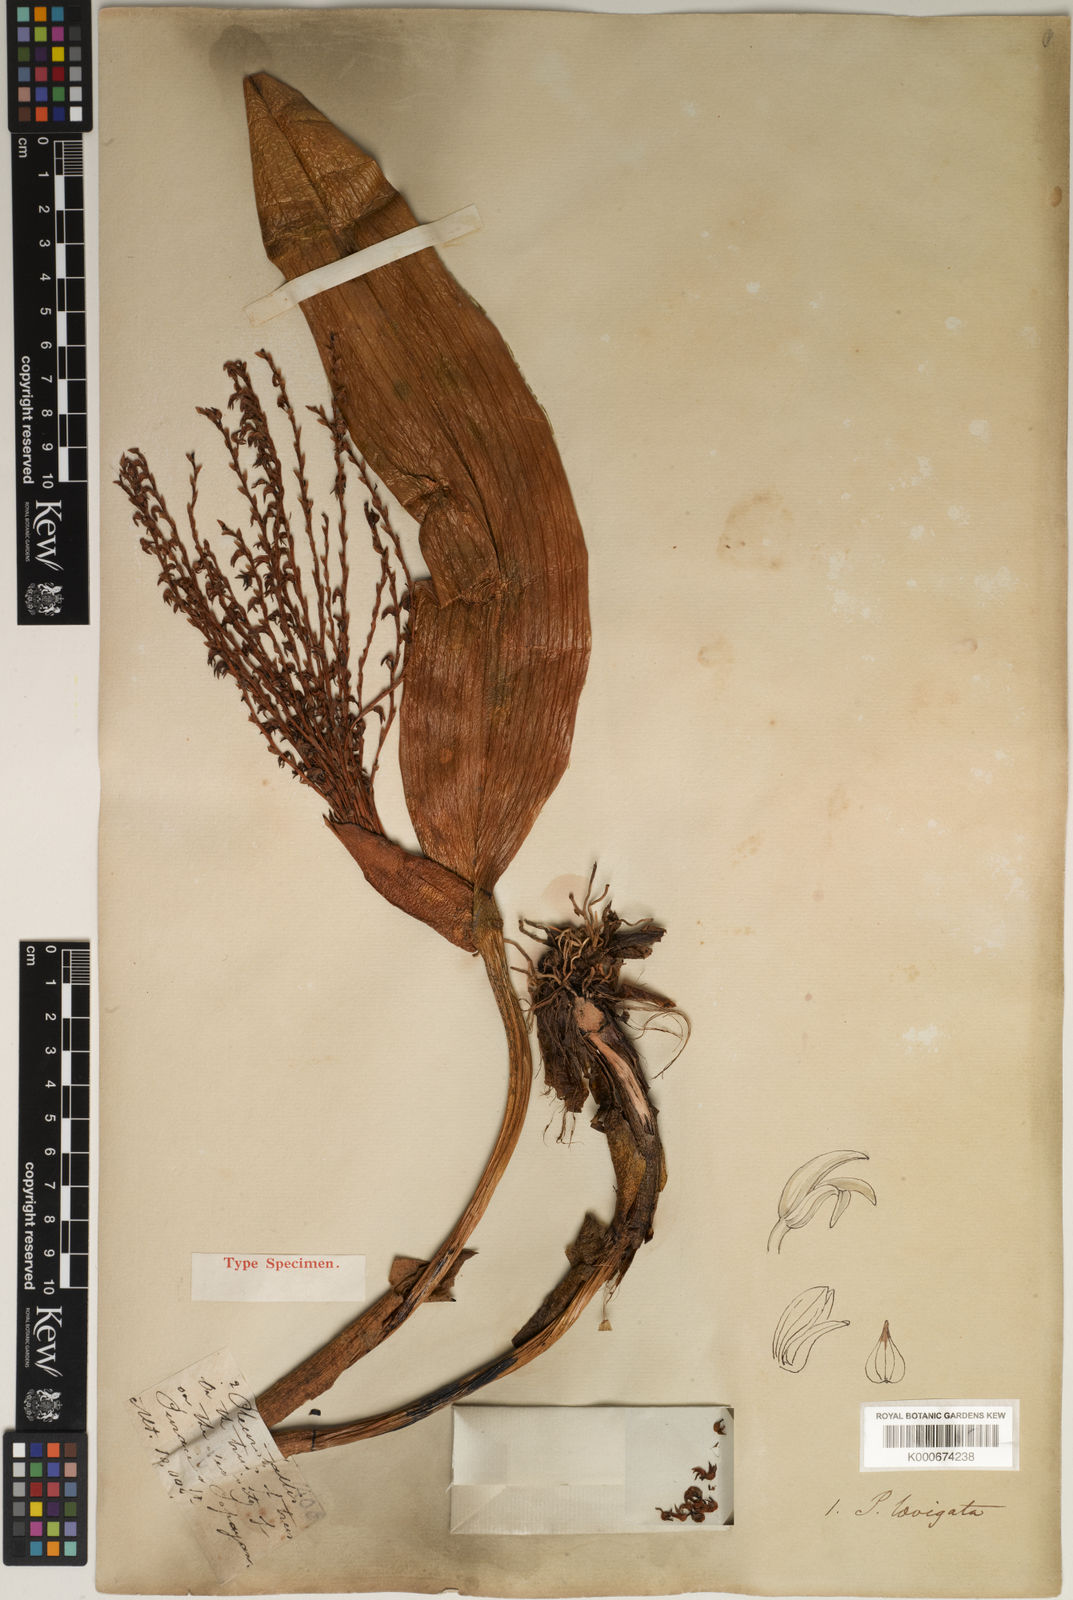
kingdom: Plantae
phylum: Tracheophyta
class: Liliopsida
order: Asparagales
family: Orchidaceae
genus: Stelis
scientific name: Stelis laevigata
